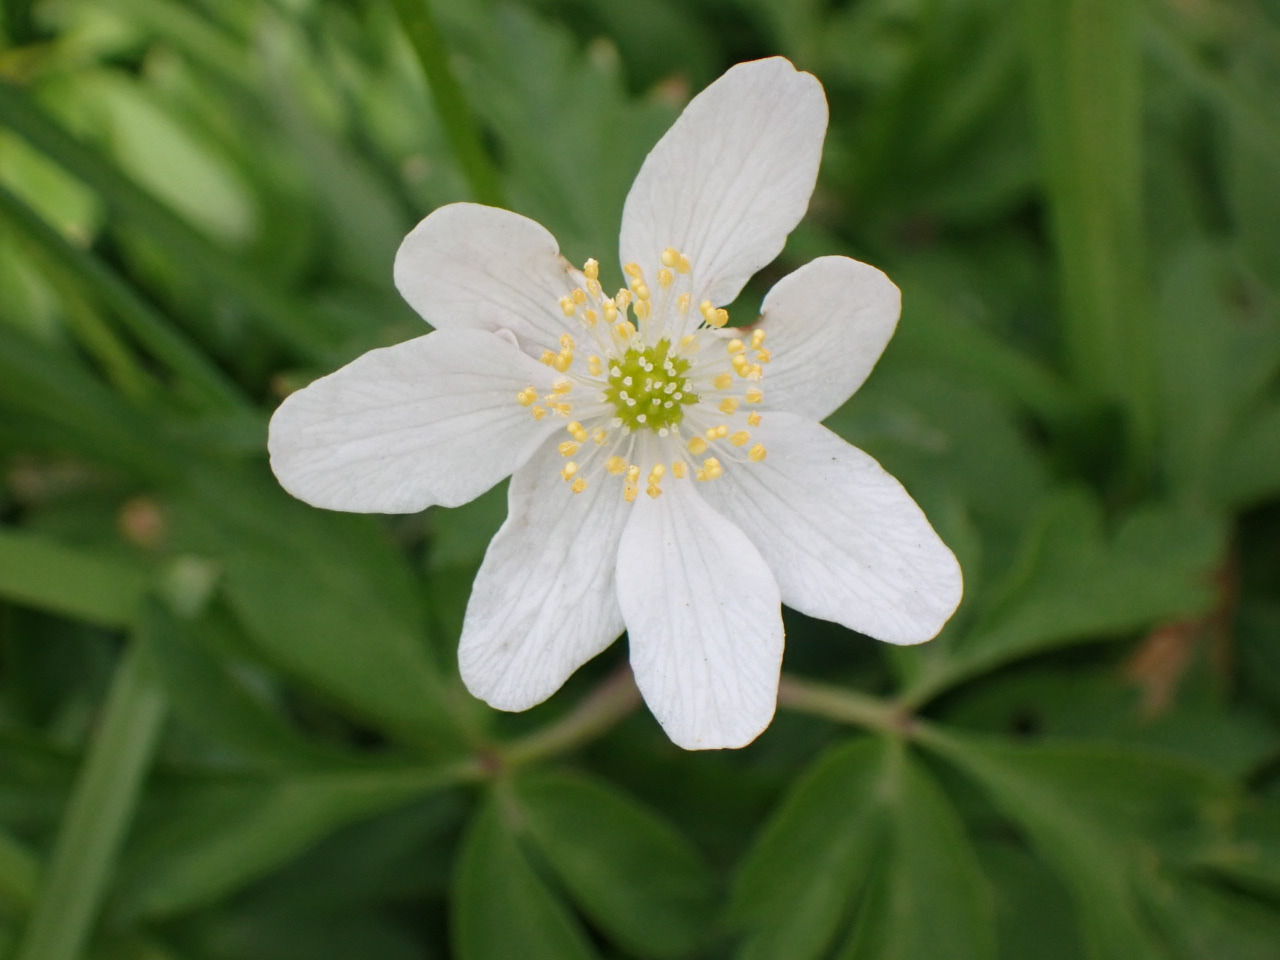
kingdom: Plantae
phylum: Tracheophyta
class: Magnoliopsida
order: Ranunculales
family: Ranunculaceae
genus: Anemone
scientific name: Anemone nemorosa
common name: Hvid anemone
